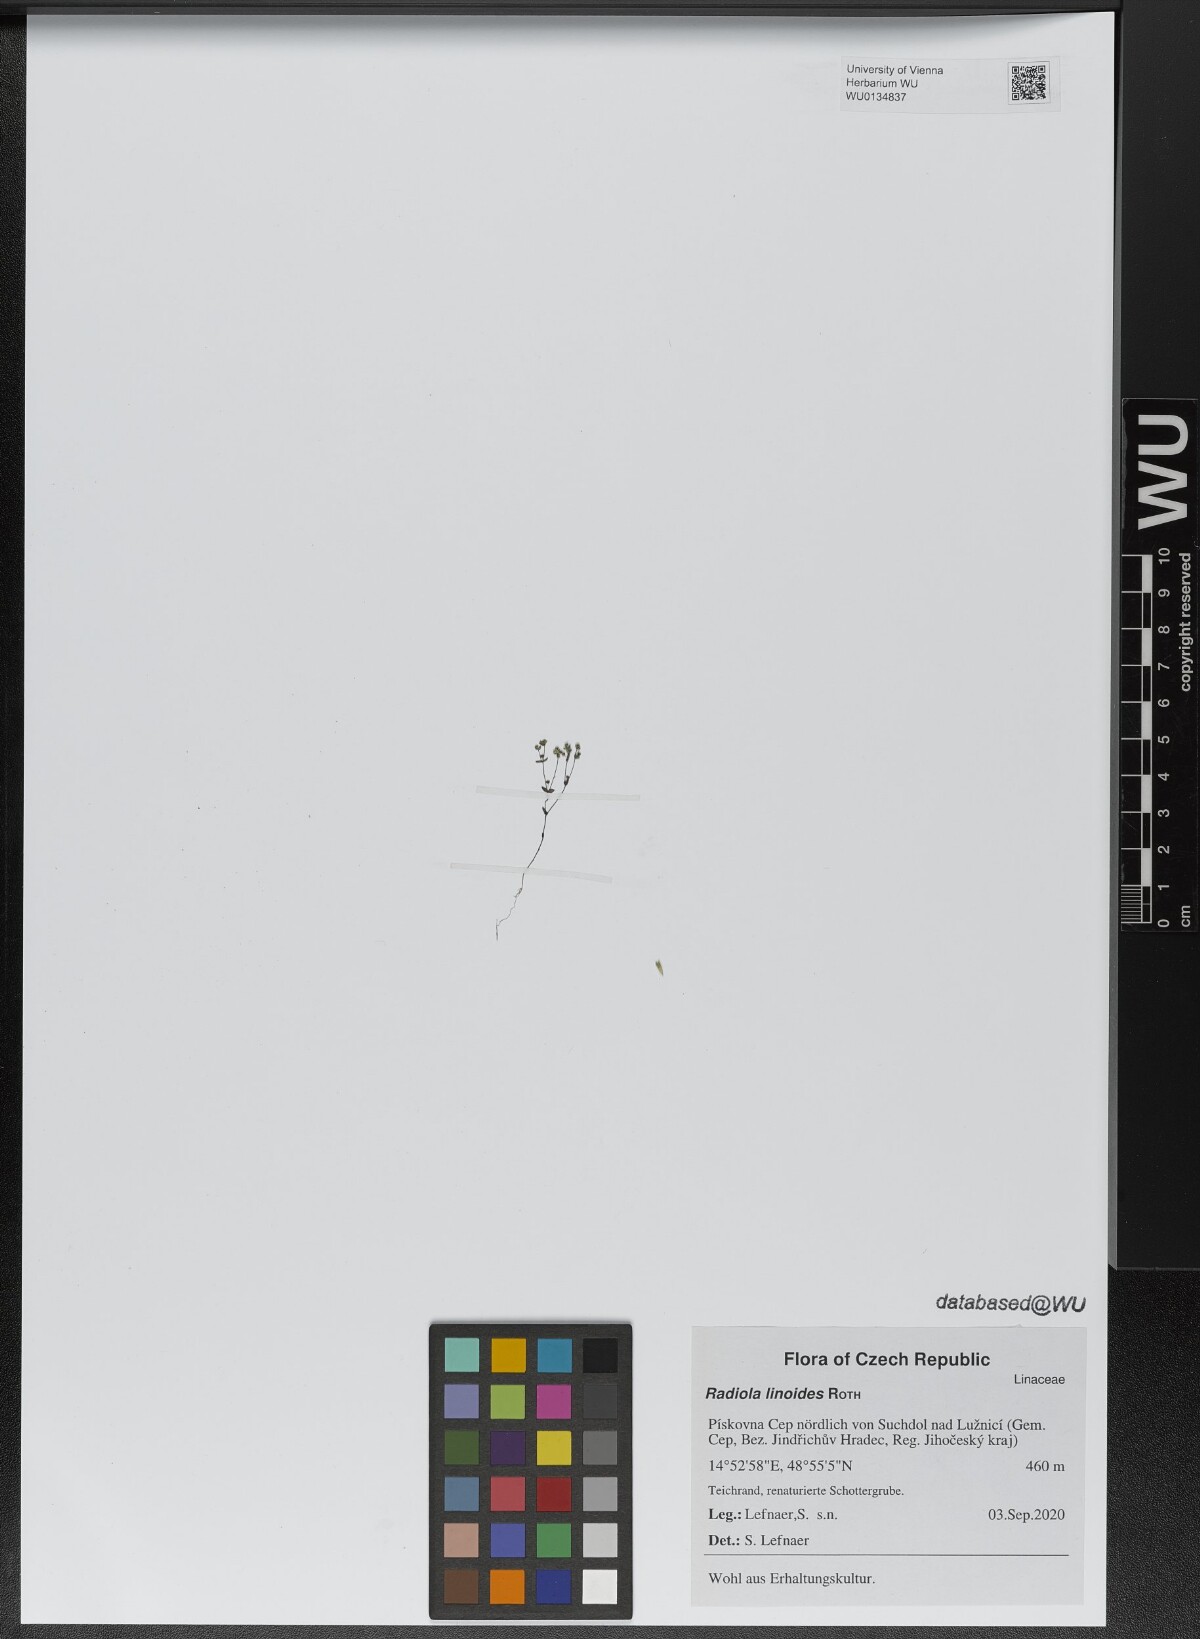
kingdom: Plantae
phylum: Tracheophyta
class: Magnoliopsida
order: Malpighiales
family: Linaceae
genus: Radiola
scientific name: Radiola linoides
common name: Allseed
